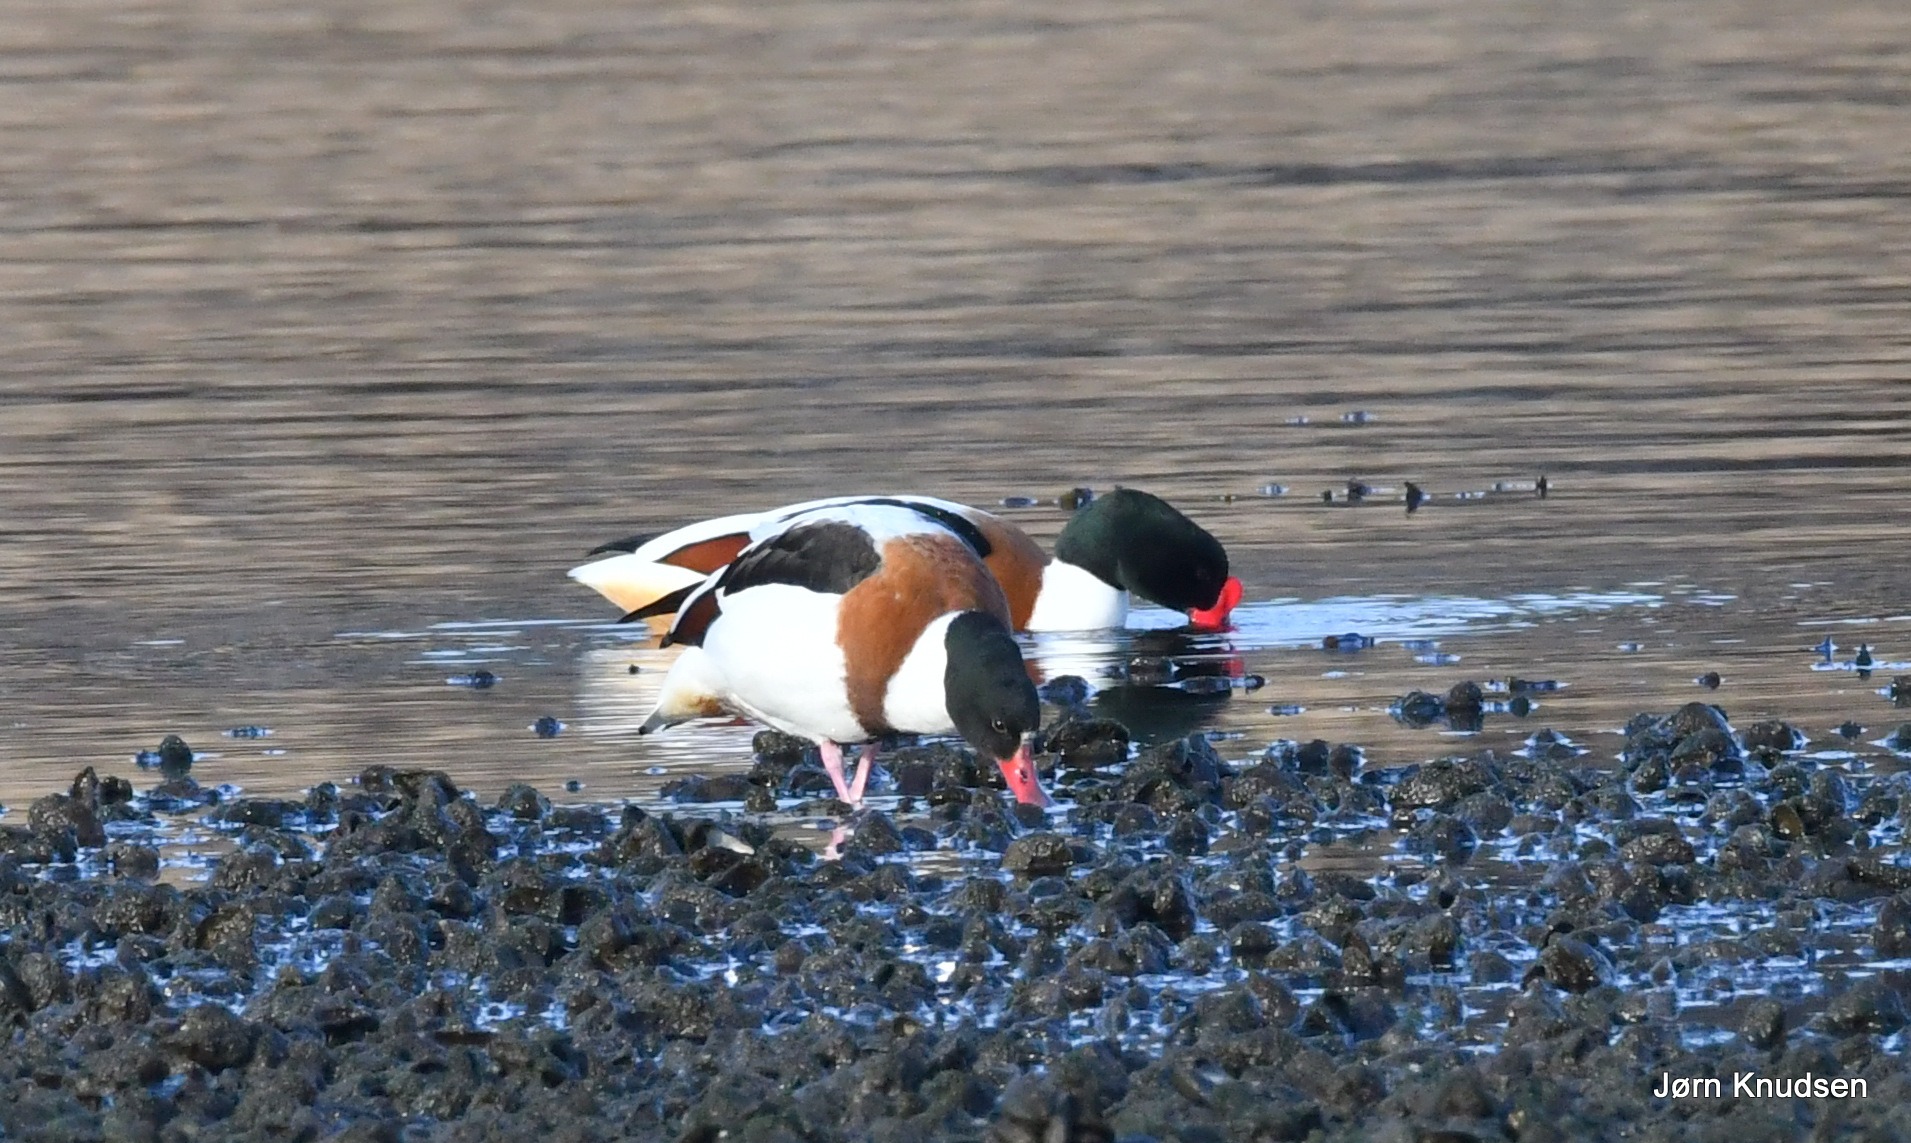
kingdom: Animalia
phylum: Chordata
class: Aves
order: Anseriformes
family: Anatidae
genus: Tadorna
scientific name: Tadorna tadorna
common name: Gravand
